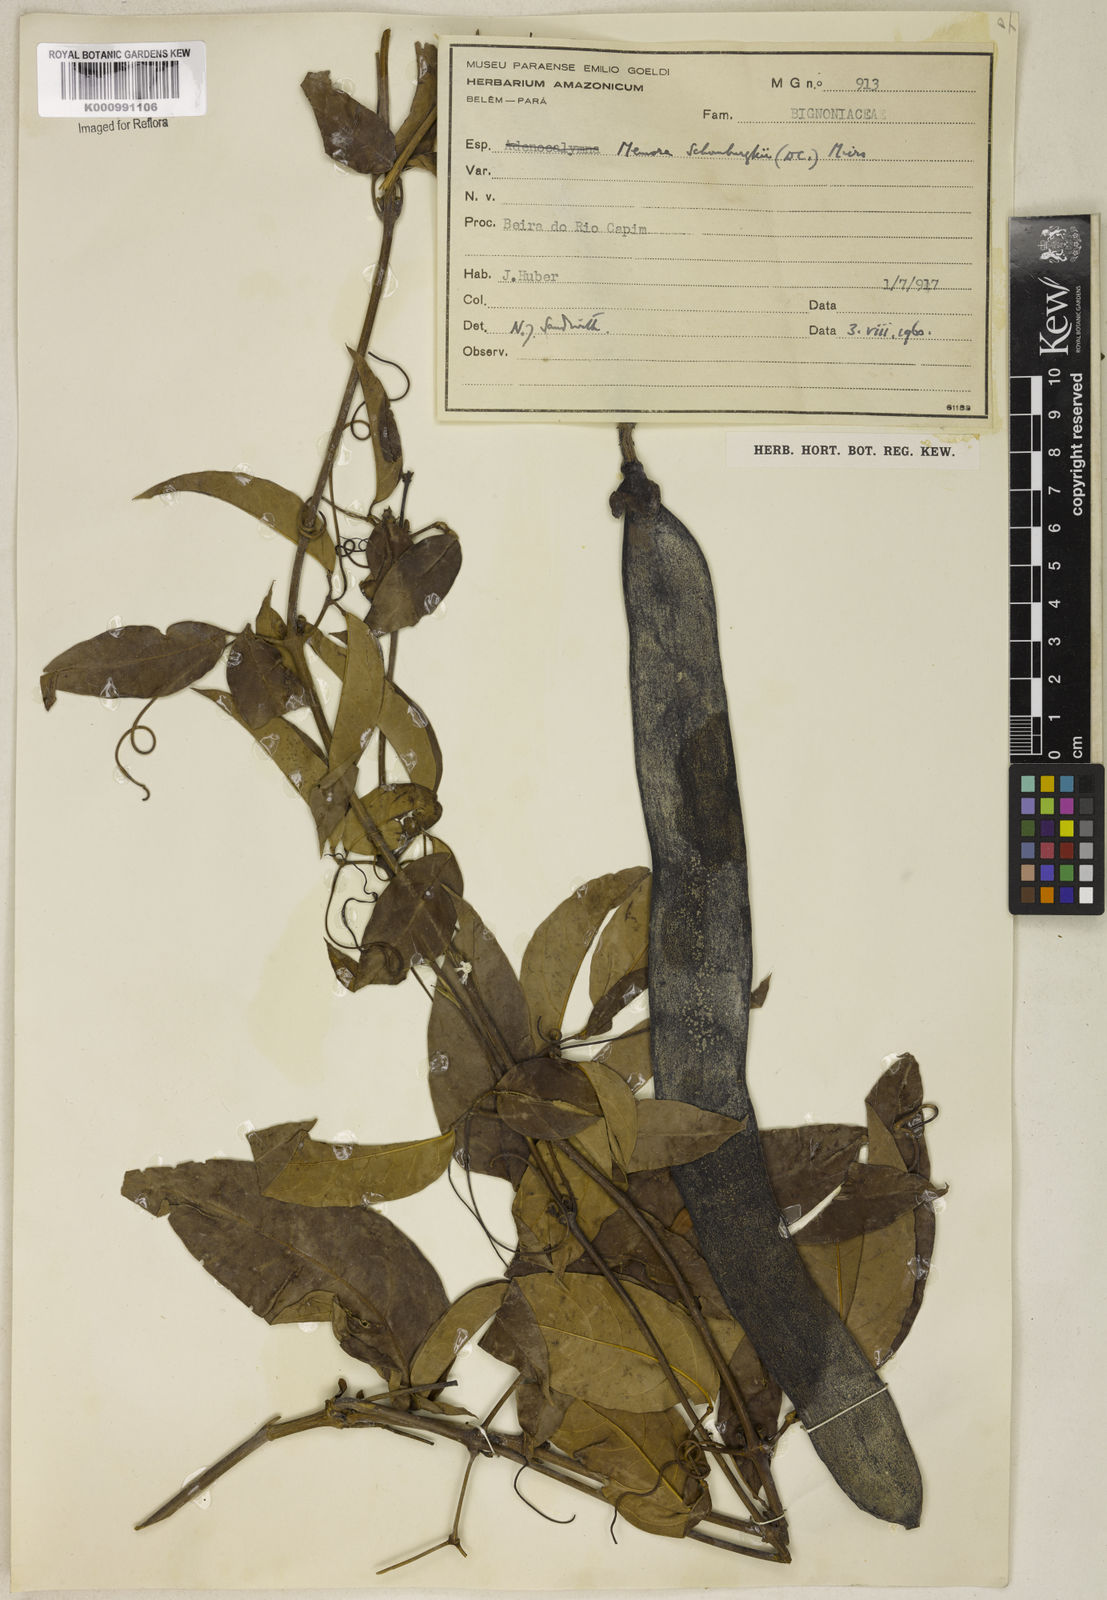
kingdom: Plantae
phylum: Tracheophyta
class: Magnoliopsida
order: Lamiales
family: Bignoniaceae
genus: Adenocalymma
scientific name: Adenocalymma schomburgkii
